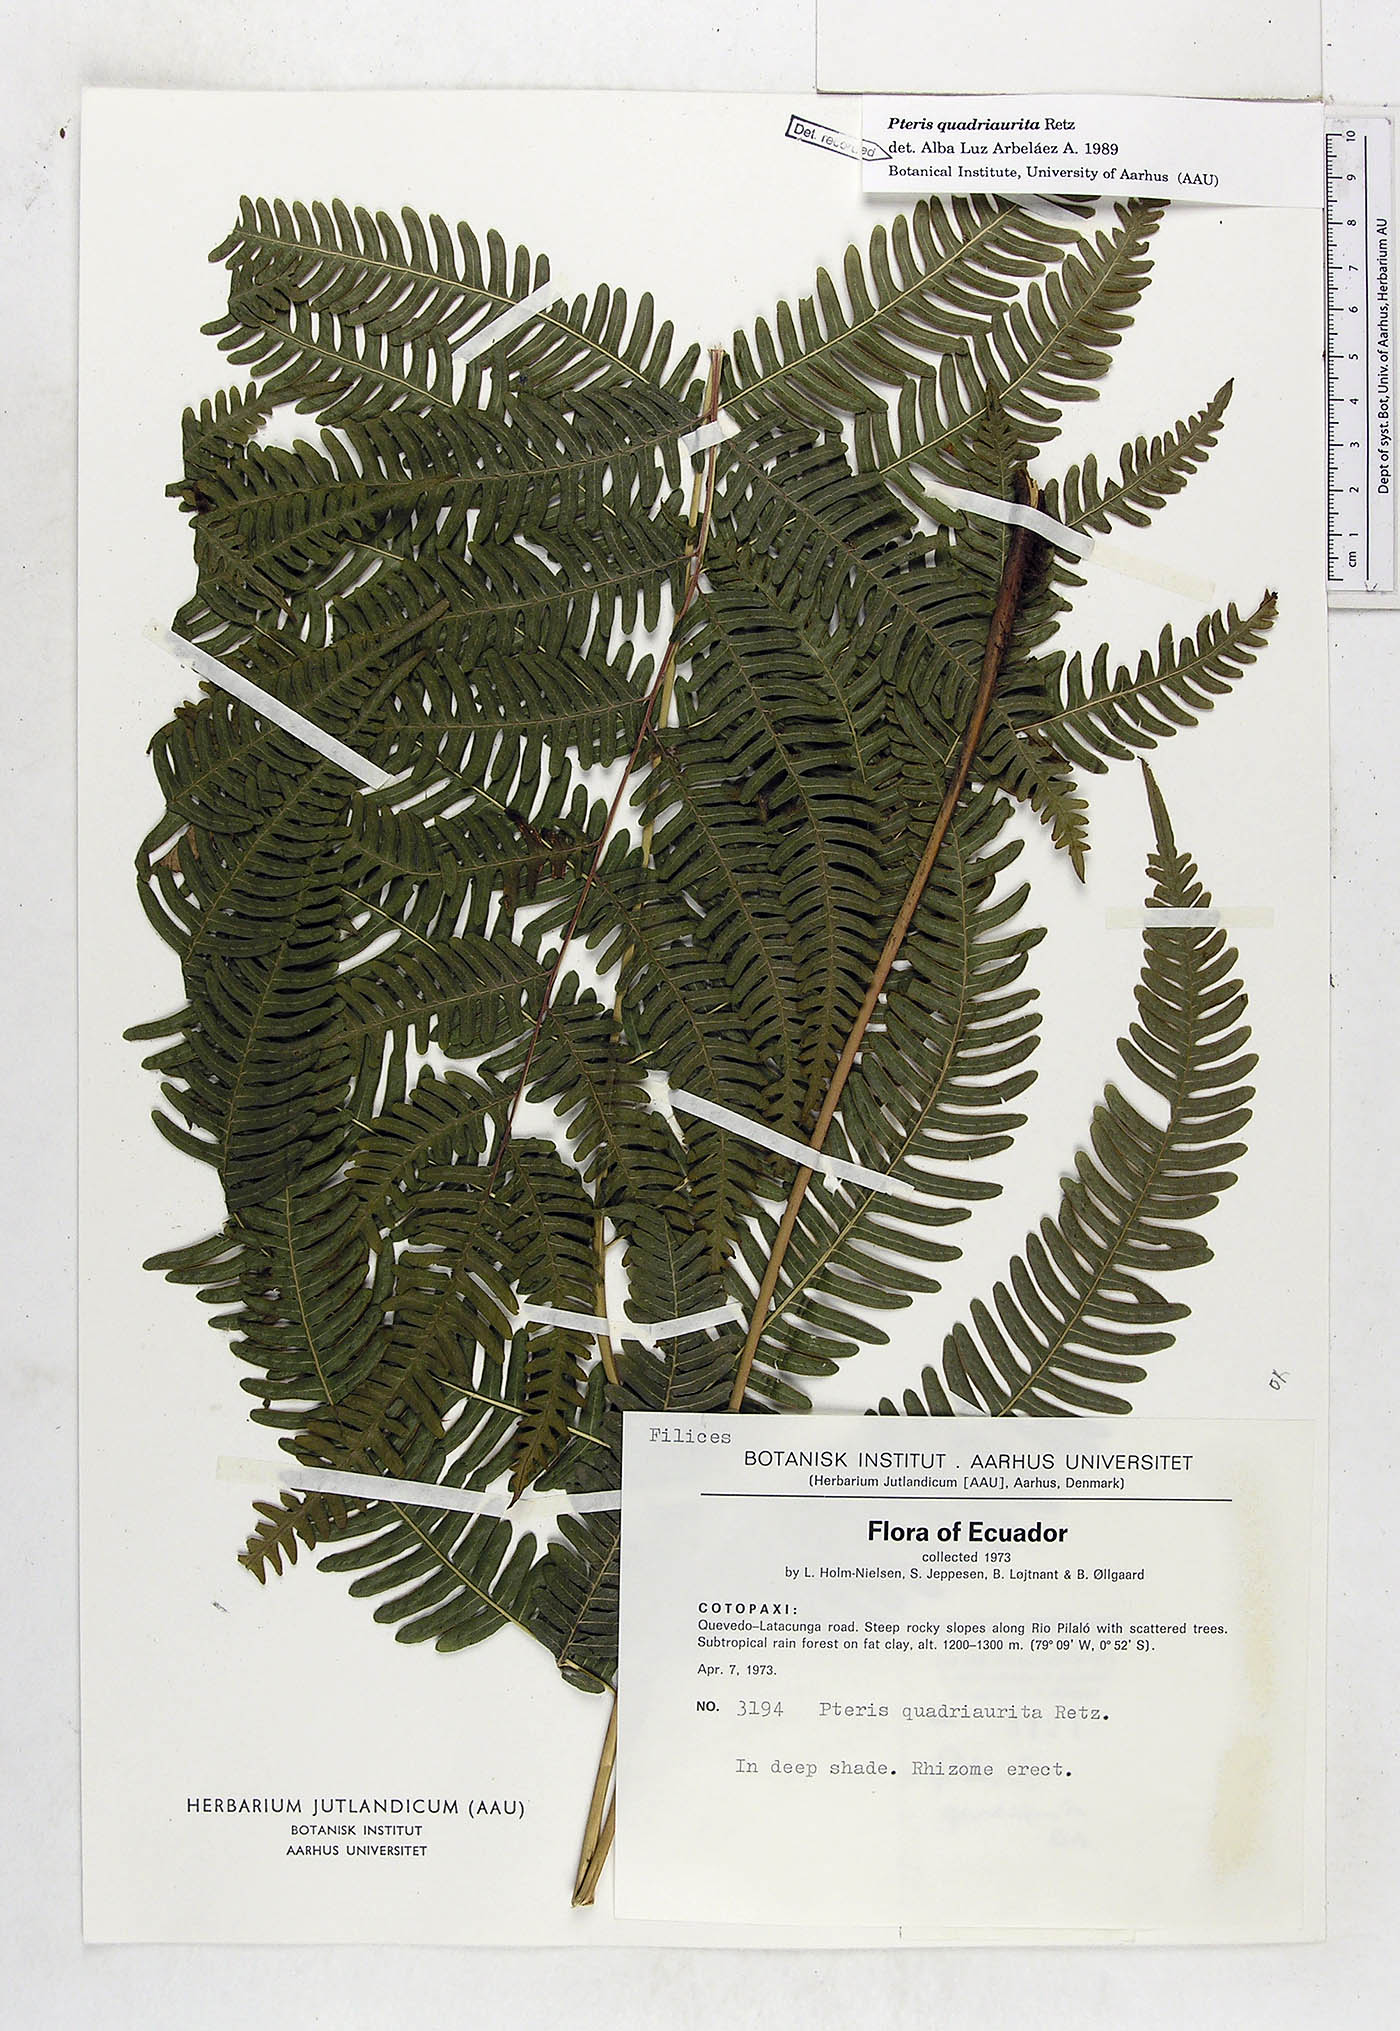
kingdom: Plantae
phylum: Tracheophyta
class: Polypodiopsida
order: Polypodiales
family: Pteridaceae
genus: Pteris
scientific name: Pteris quadriaurita
